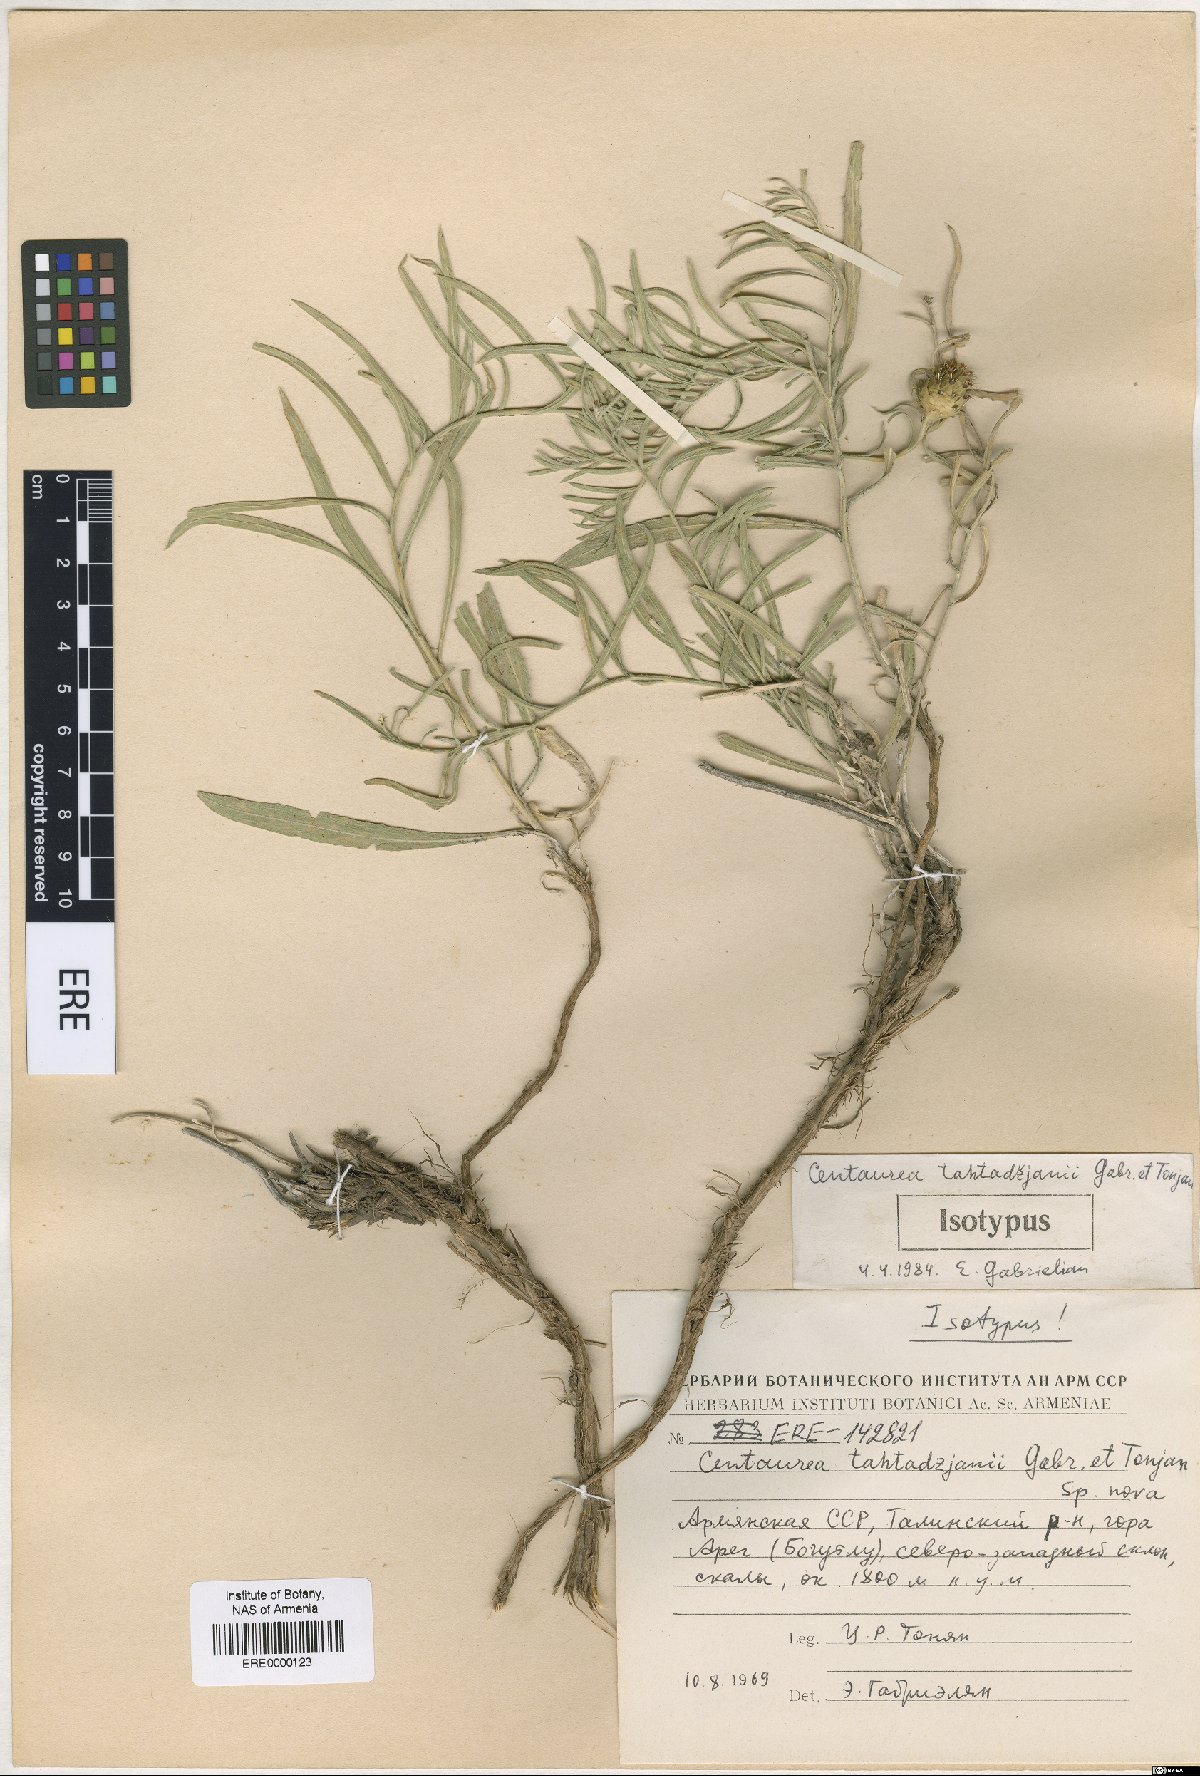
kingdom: Plantae
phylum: Tracheophyta
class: Magnoliopsida
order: Asterales
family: Asteraceae
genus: Centaurea
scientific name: Centaurea takhtajanii
